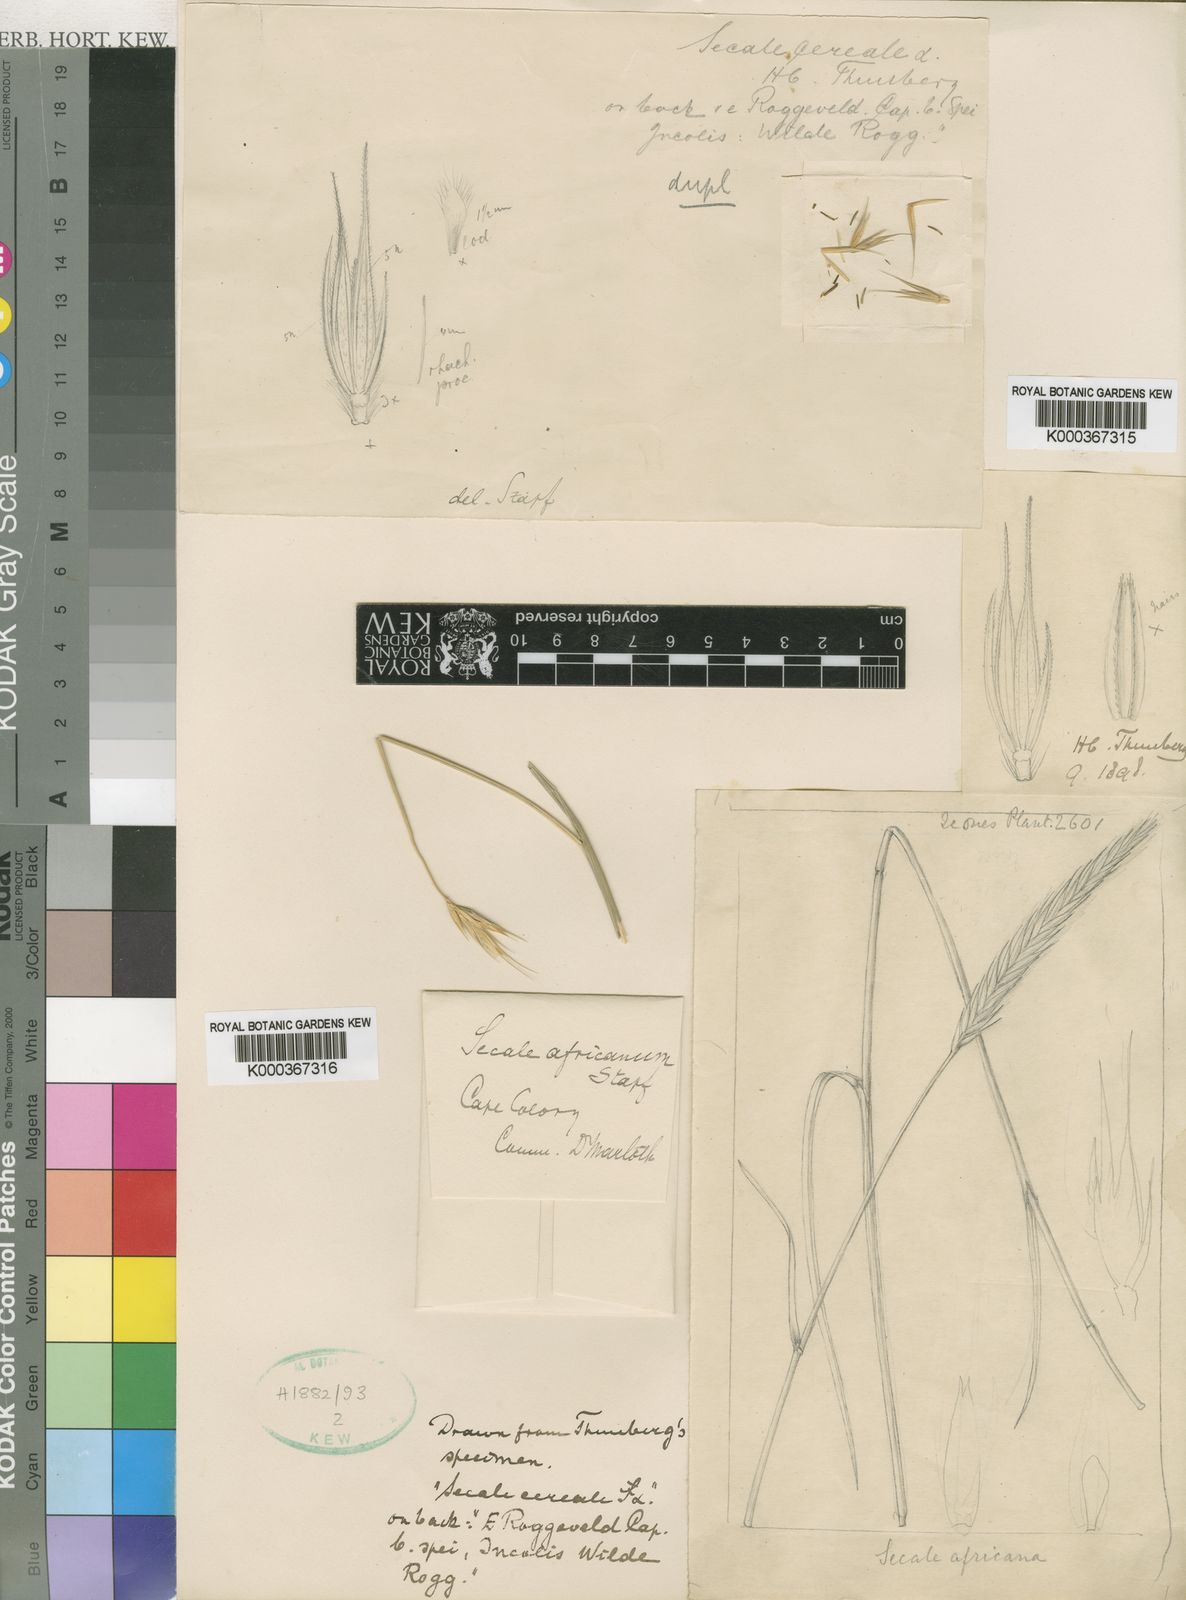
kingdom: Plantae
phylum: Tracheophyta
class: Liliopsida
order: Poales
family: Poaceae
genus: Secale
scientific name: Secale africanum
